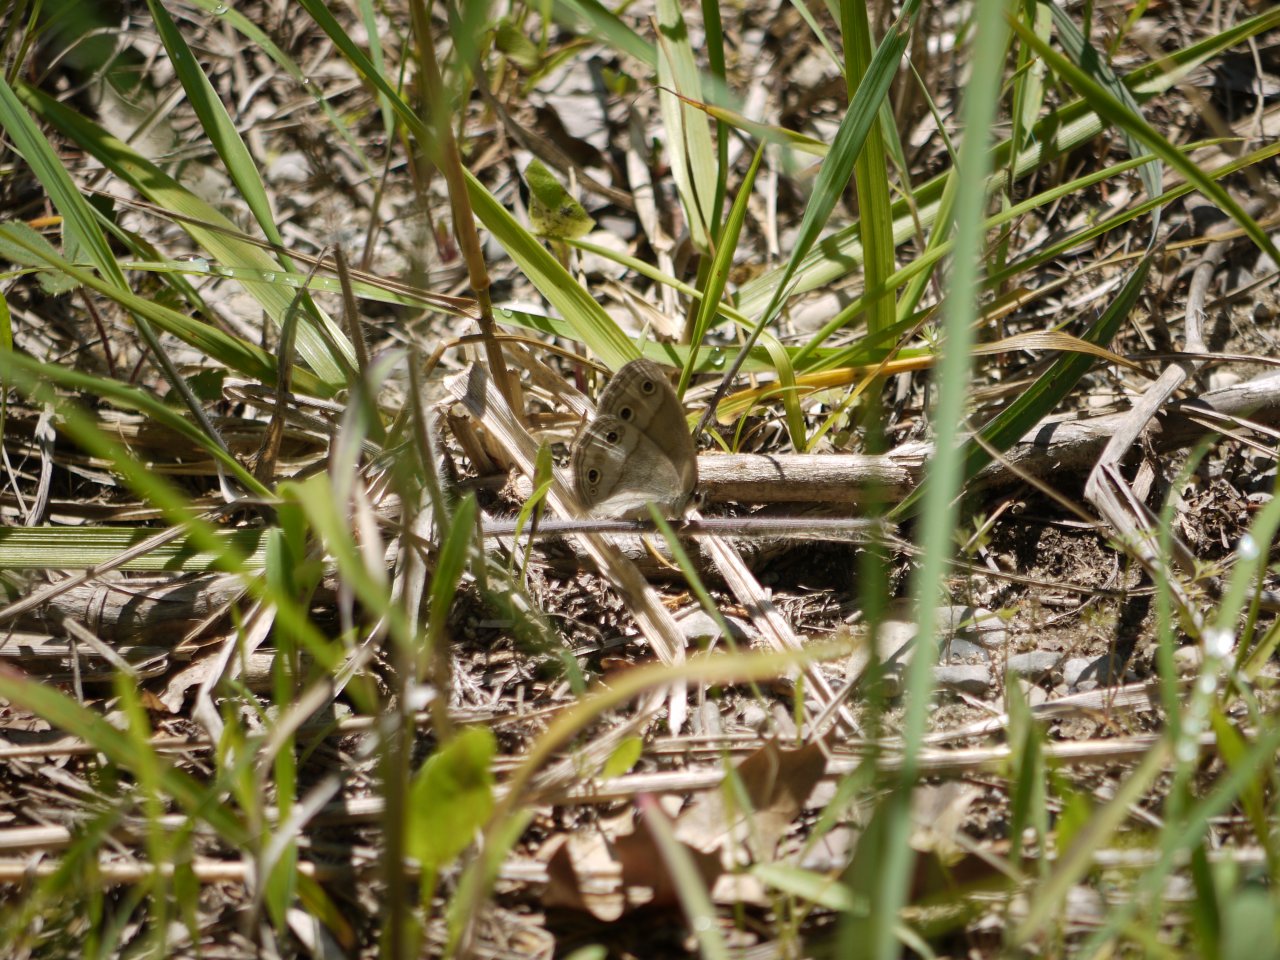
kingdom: Animalia
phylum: Arthropoda
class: Insecta
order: Lepidoptera
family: Nymphalidae
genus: Euptychia
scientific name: Euptychia cymela
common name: Little Wood Satyr
